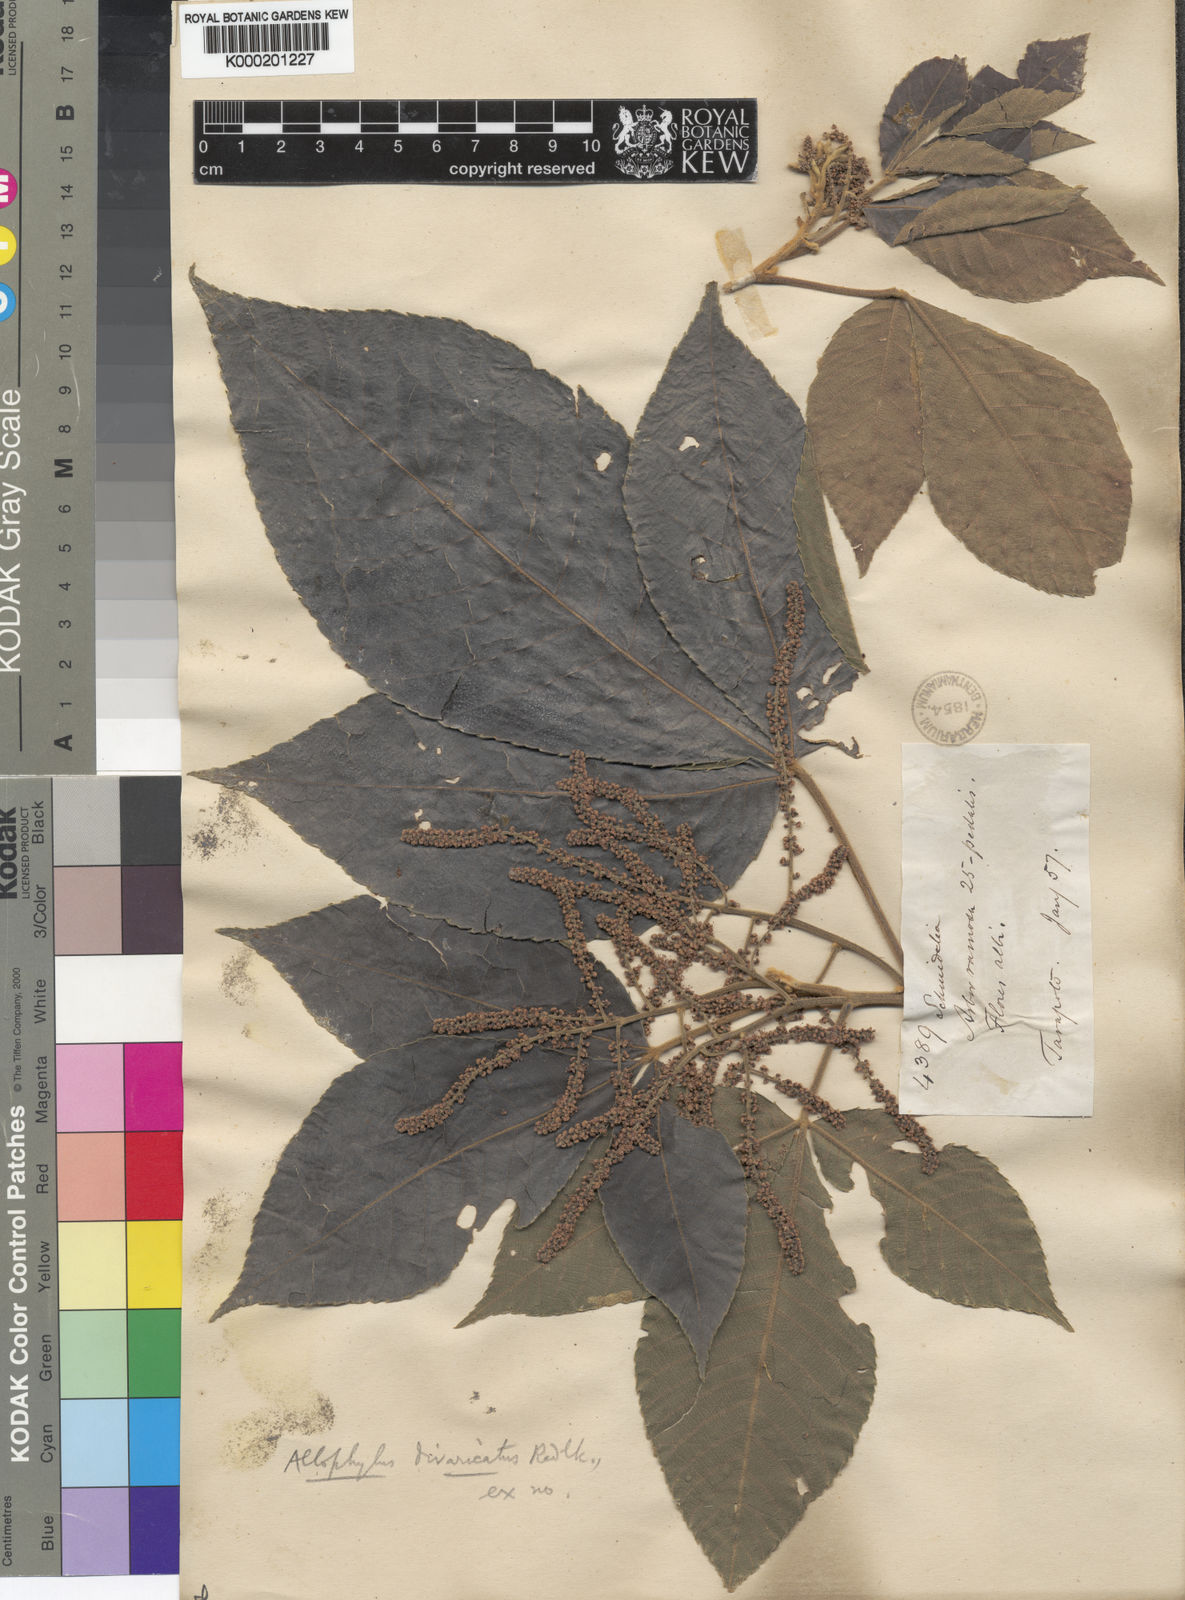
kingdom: Plantae
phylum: Tracheophyta
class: Magnoliopsida
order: Sapindales
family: Sapindaceae
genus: Allophylus
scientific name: Allophylus divaricatus
